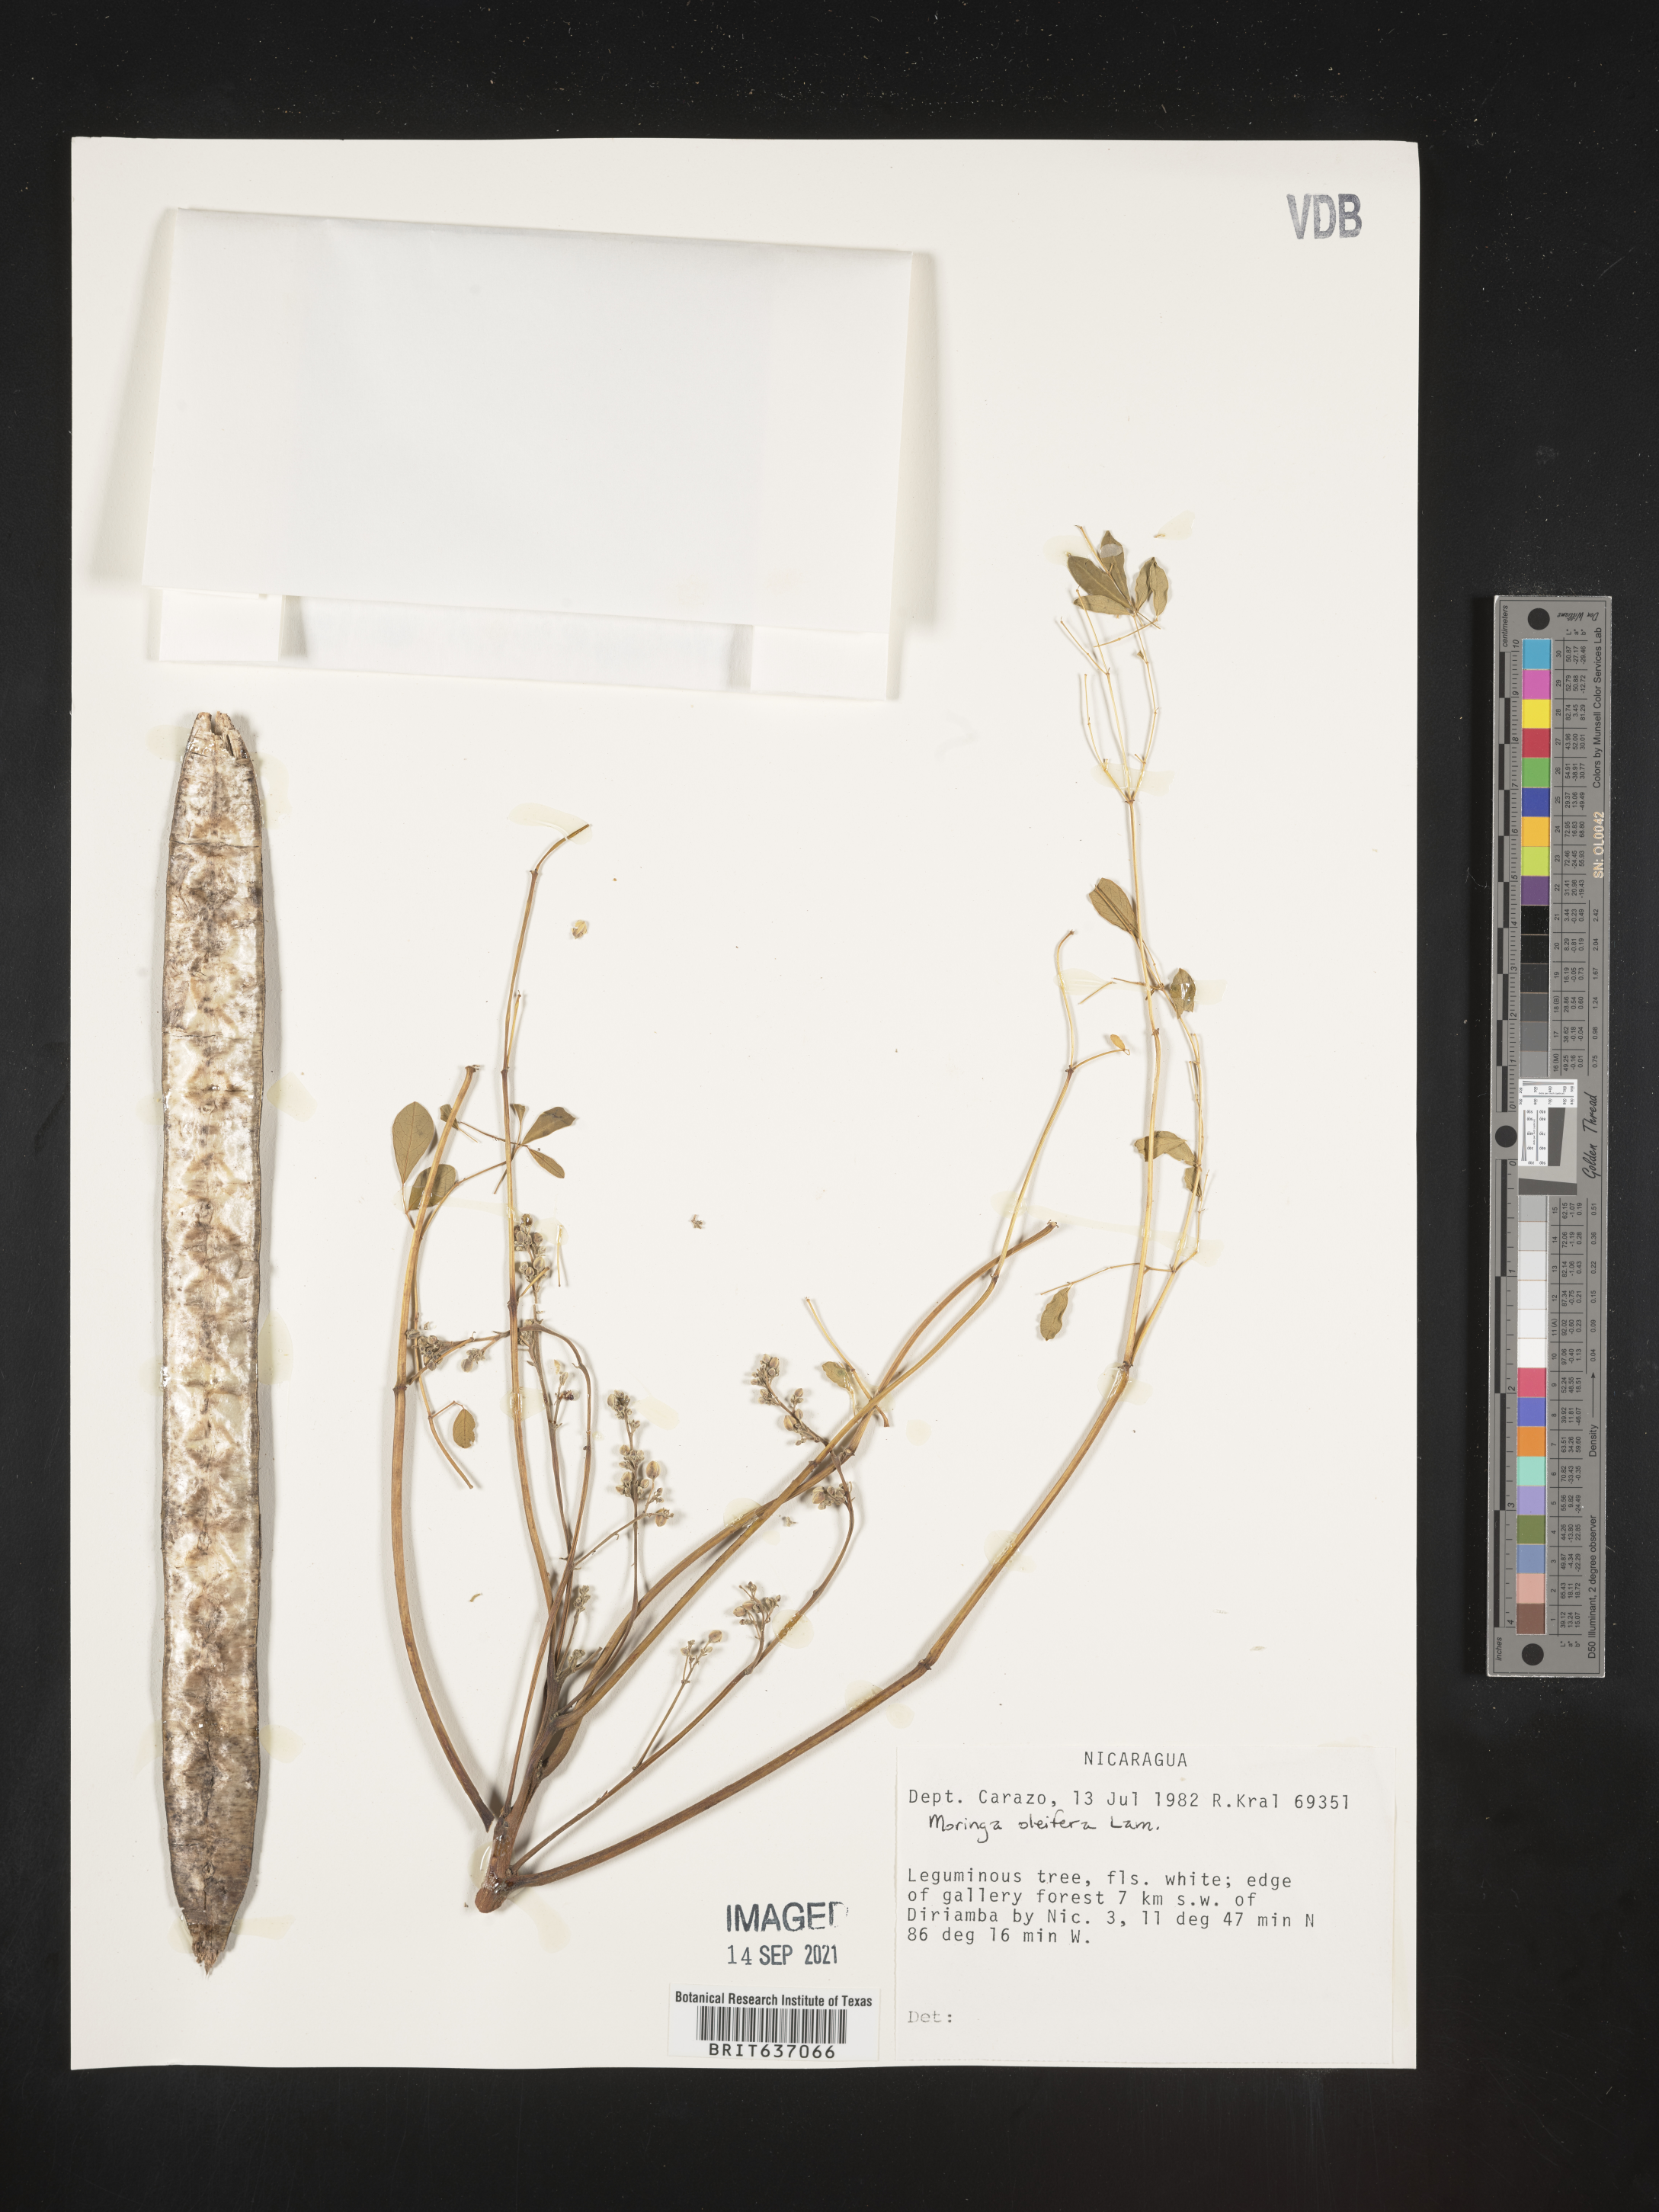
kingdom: Plantae
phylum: Tracheophyta
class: Magnoliopsida
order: Brassicales
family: Moringaceae
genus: Moringa
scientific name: Moringa
